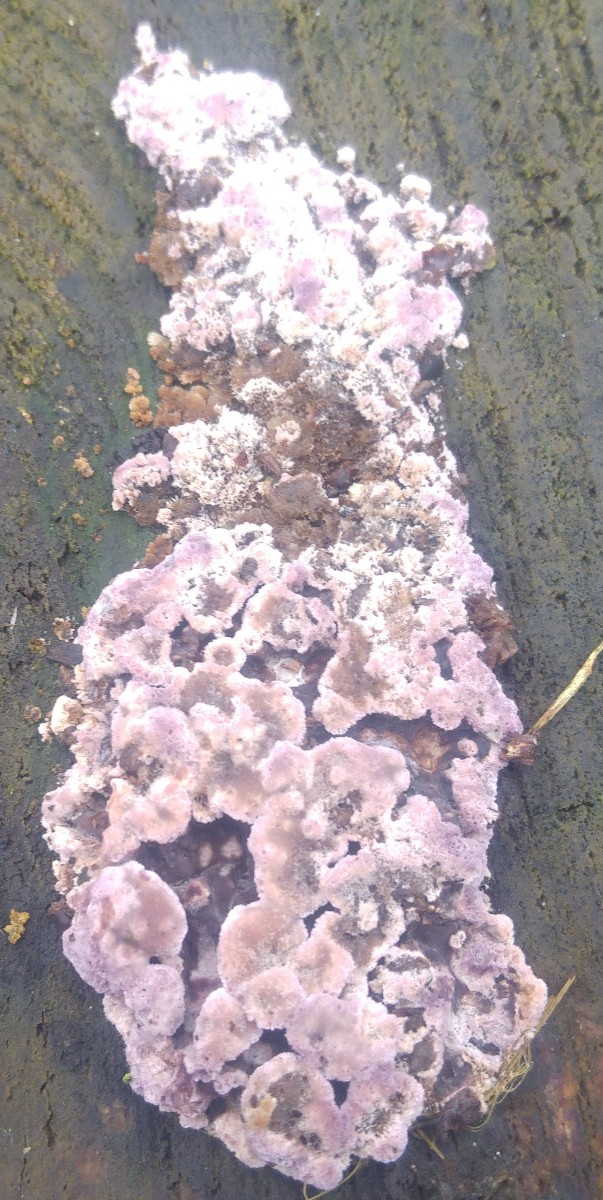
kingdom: Fungi
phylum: Basidiomycota
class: Agaricomycetes
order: Agaricales
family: Cyphellaceae
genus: Chondrostereum
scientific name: Chondrostereum purpureum
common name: purpurlædersvamp
